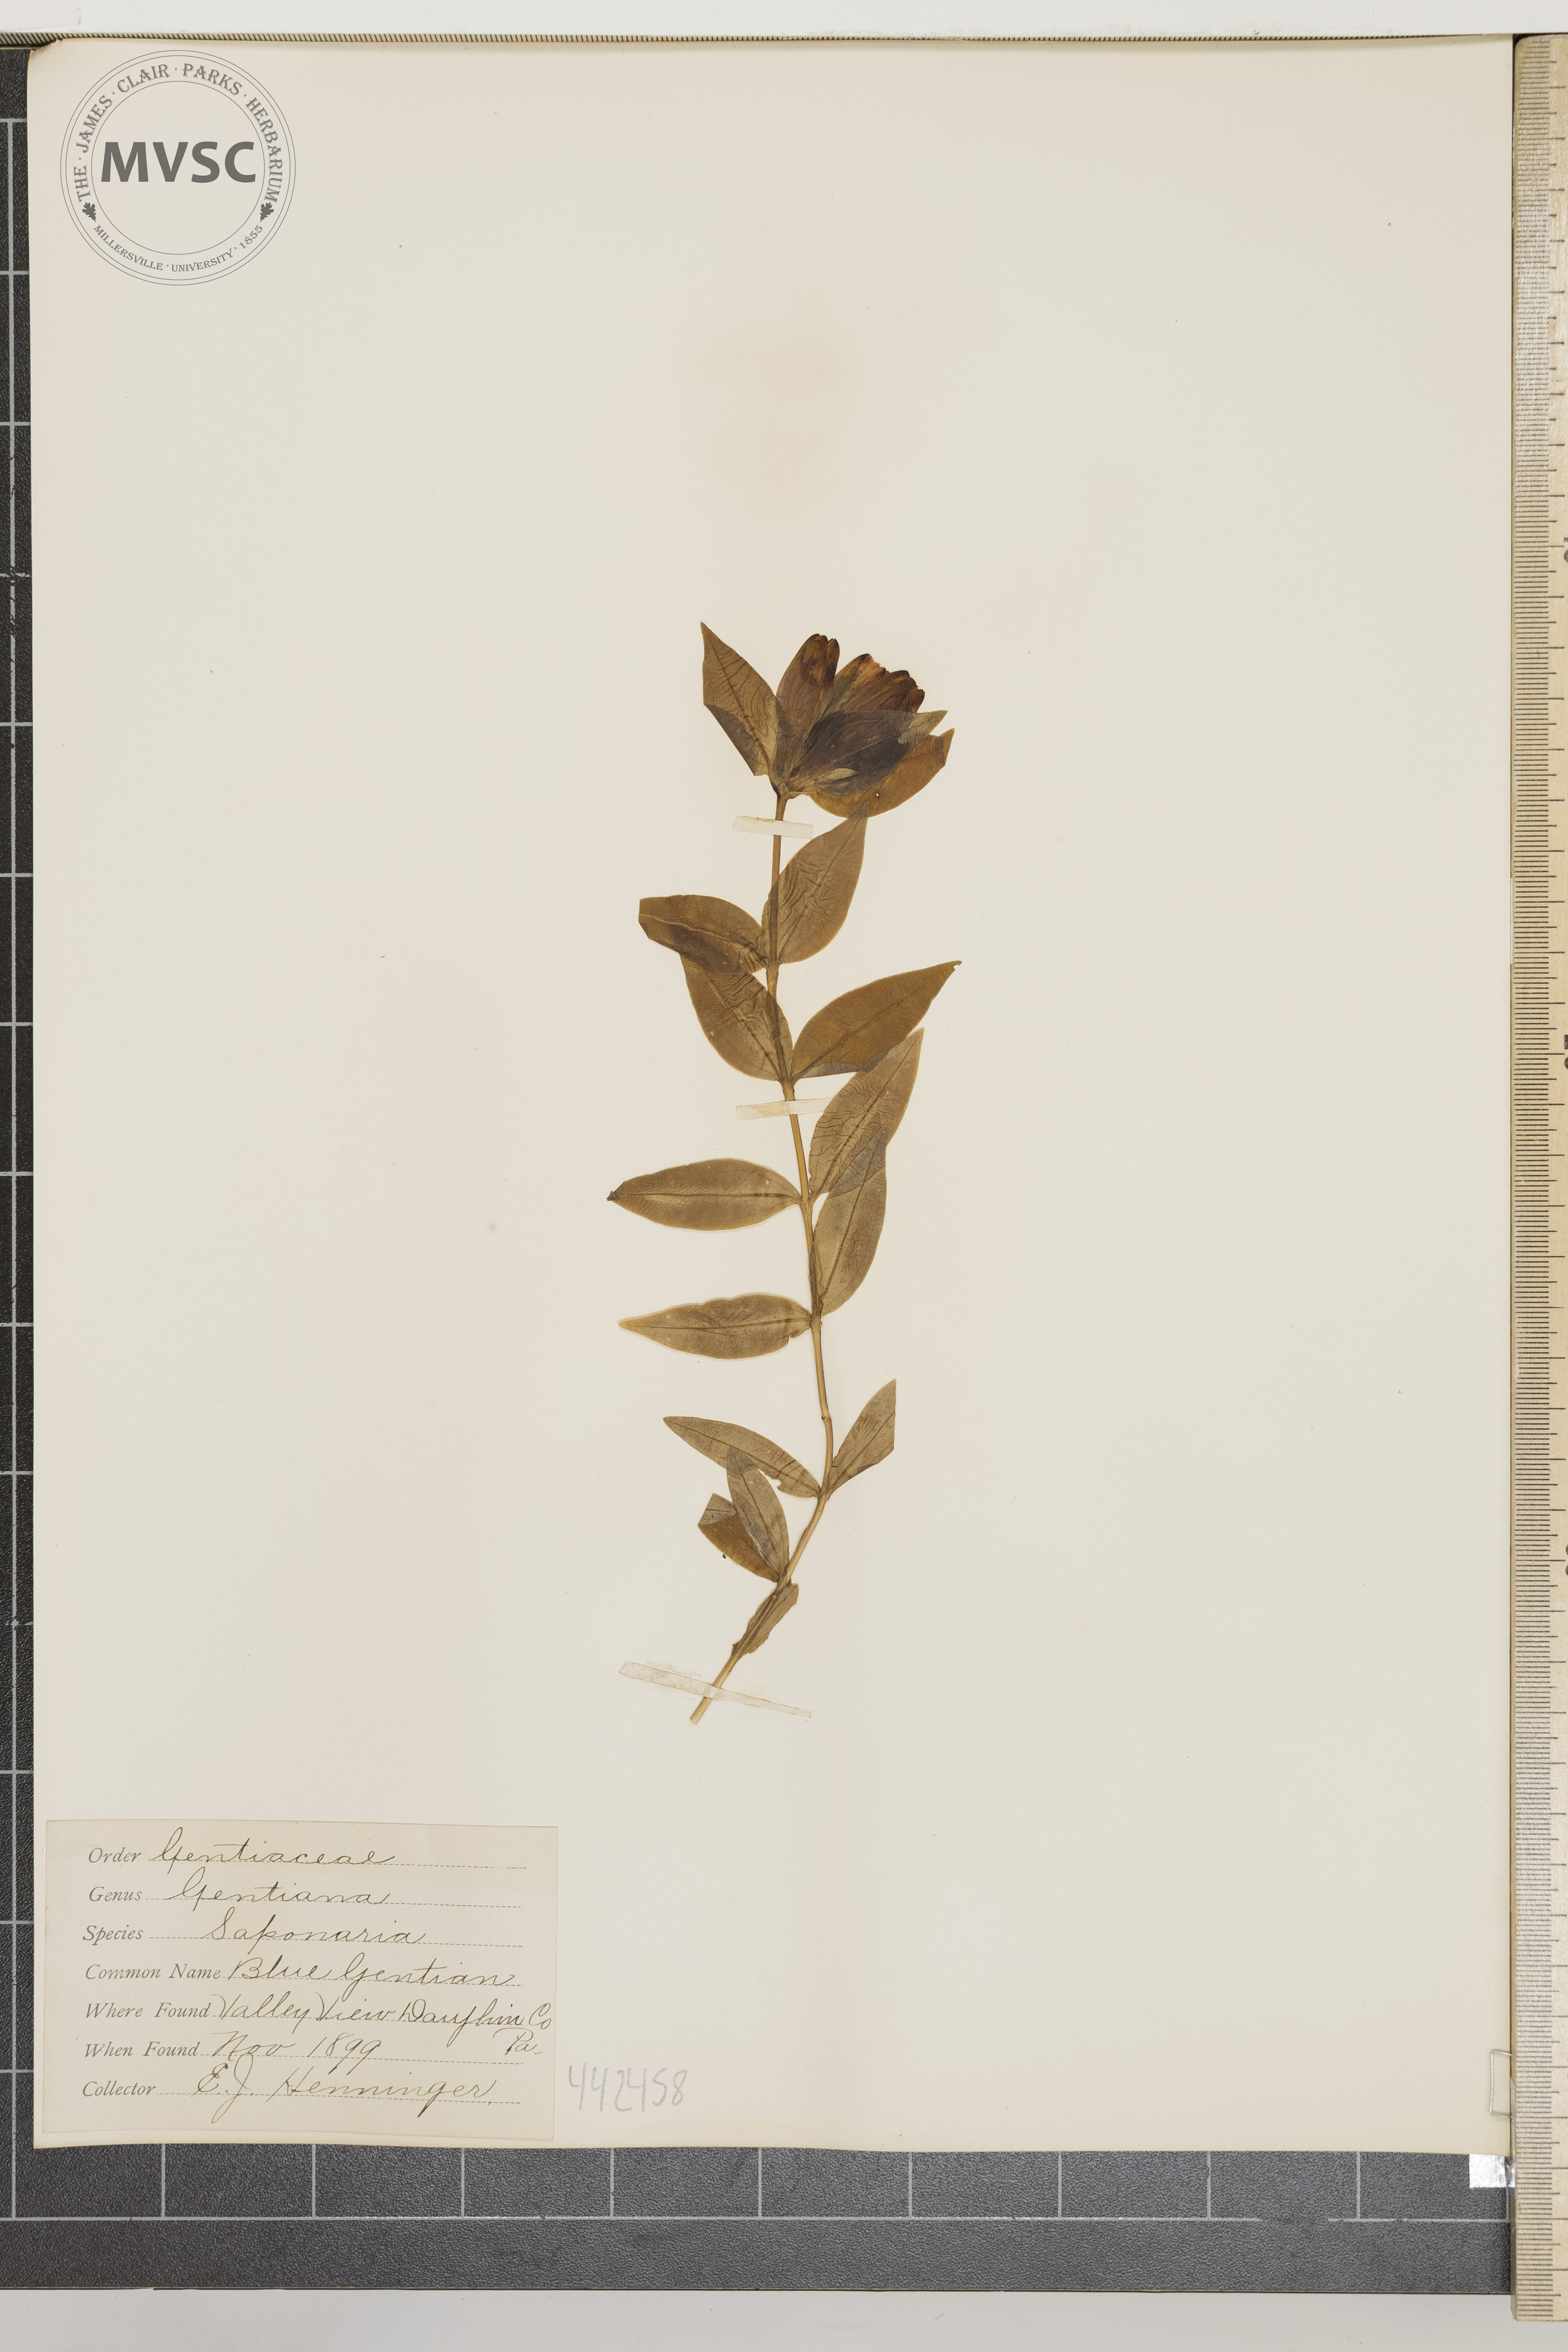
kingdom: Plantae
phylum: Tracheophyta
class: Magnoliopsida
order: Gentianales
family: Gentianaceae
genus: Gentiana
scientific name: Gentiana saponaria
